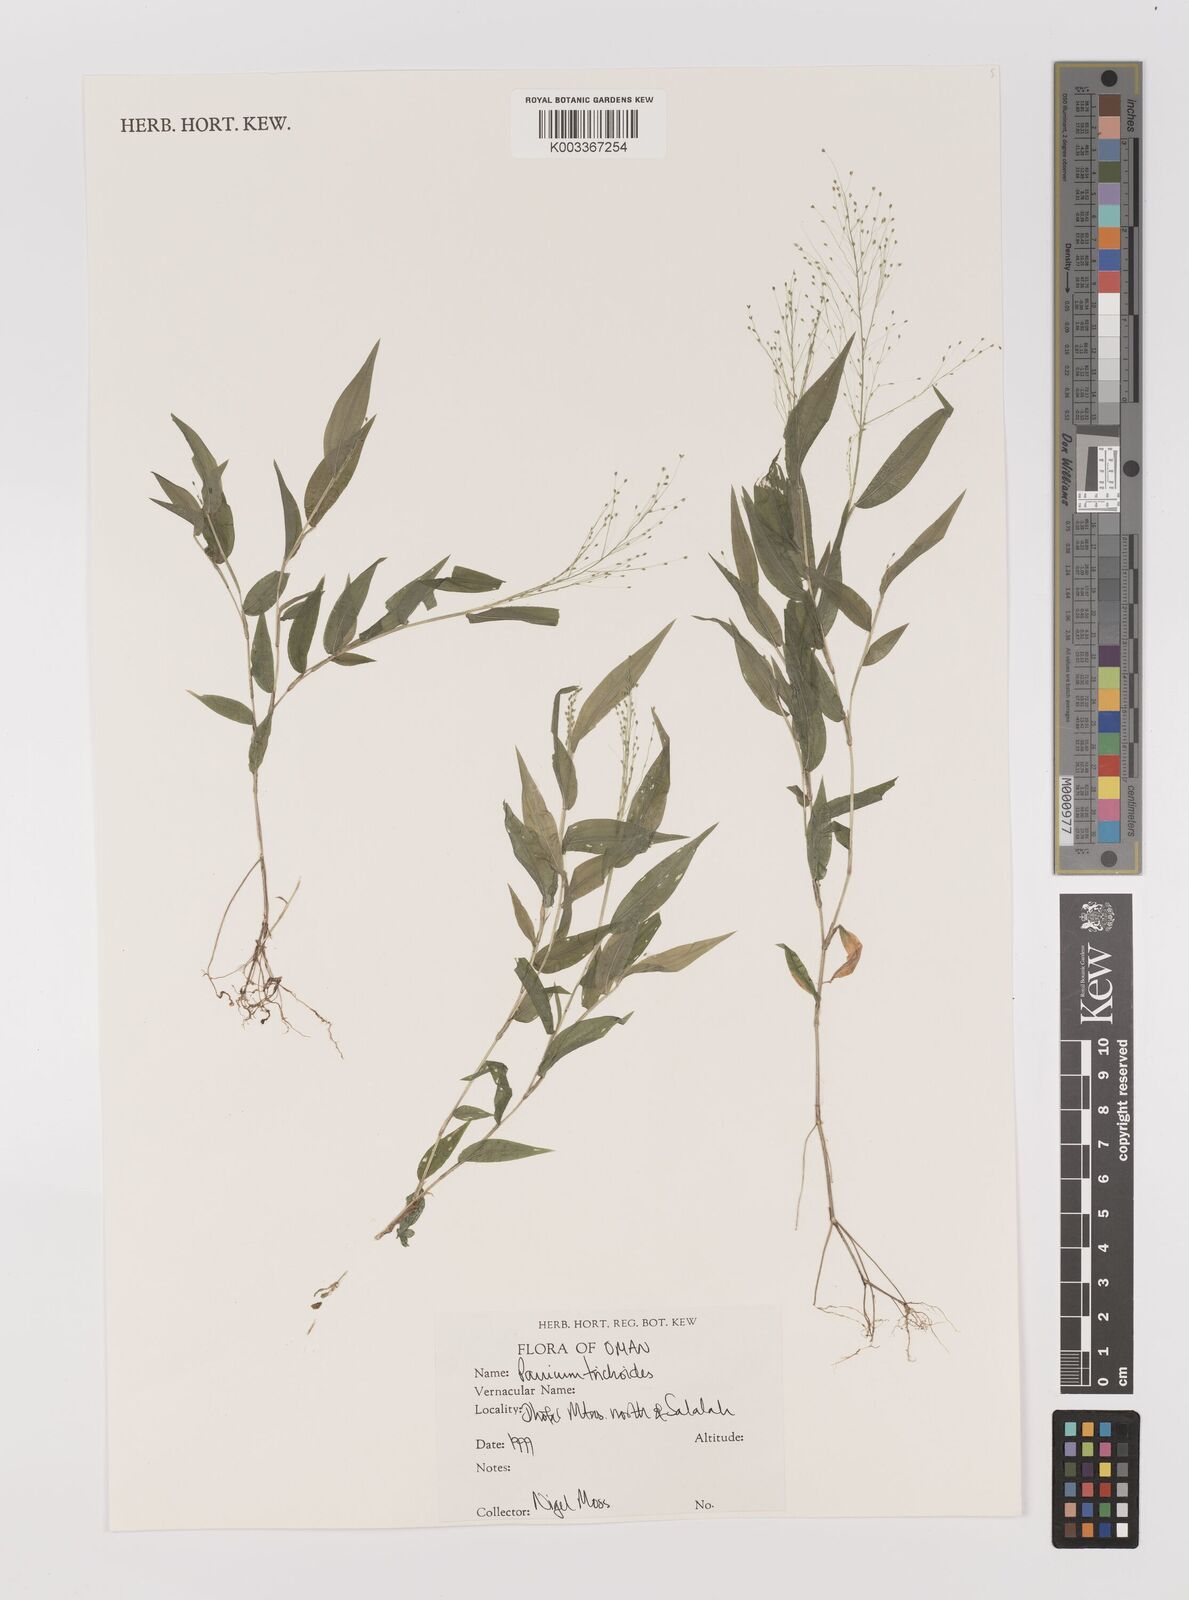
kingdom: Plantae
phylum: Tracheophyta
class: Liliopsida
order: Poales
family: Poaceae
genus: Panicum
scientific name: Panicum trichoides
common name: Tickle grass
